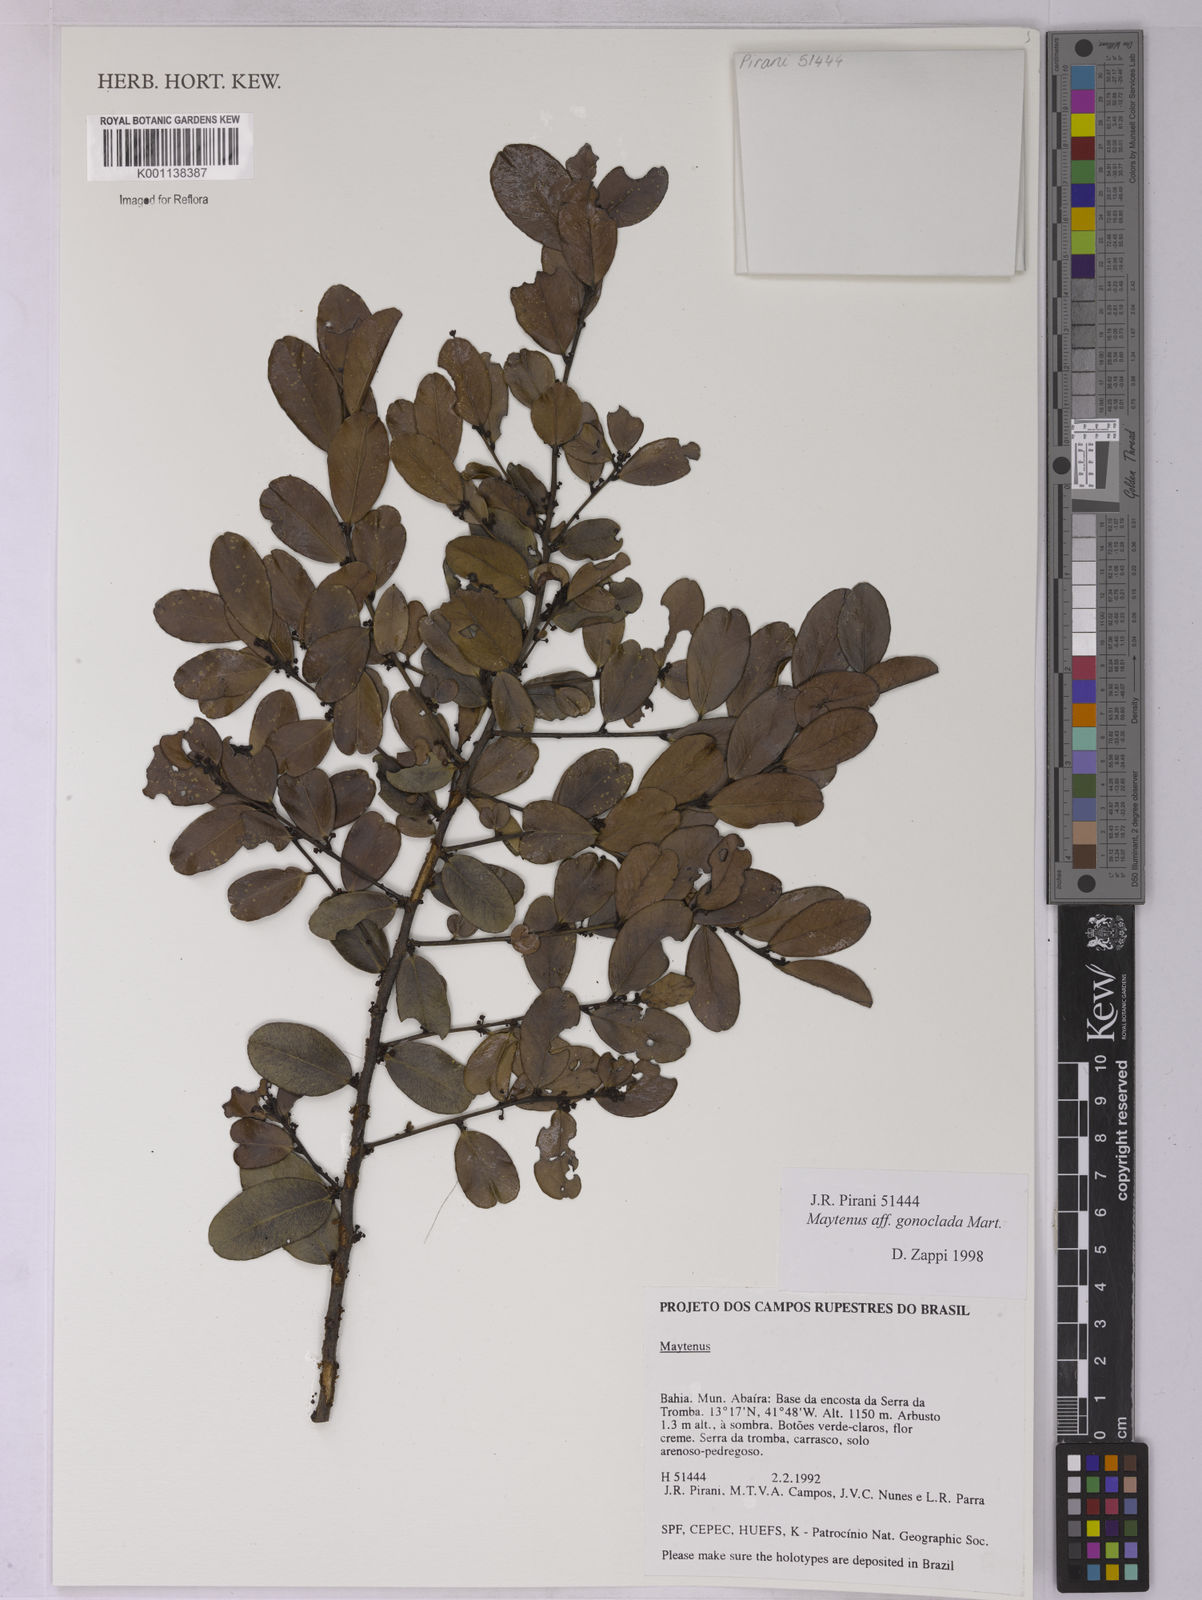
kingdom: Plantae
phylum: Tracheophyta
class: Magnoliopsida
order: Celastrales
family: Celastraceae
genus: Monteverdia
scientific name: Monteverdia gonoclada
